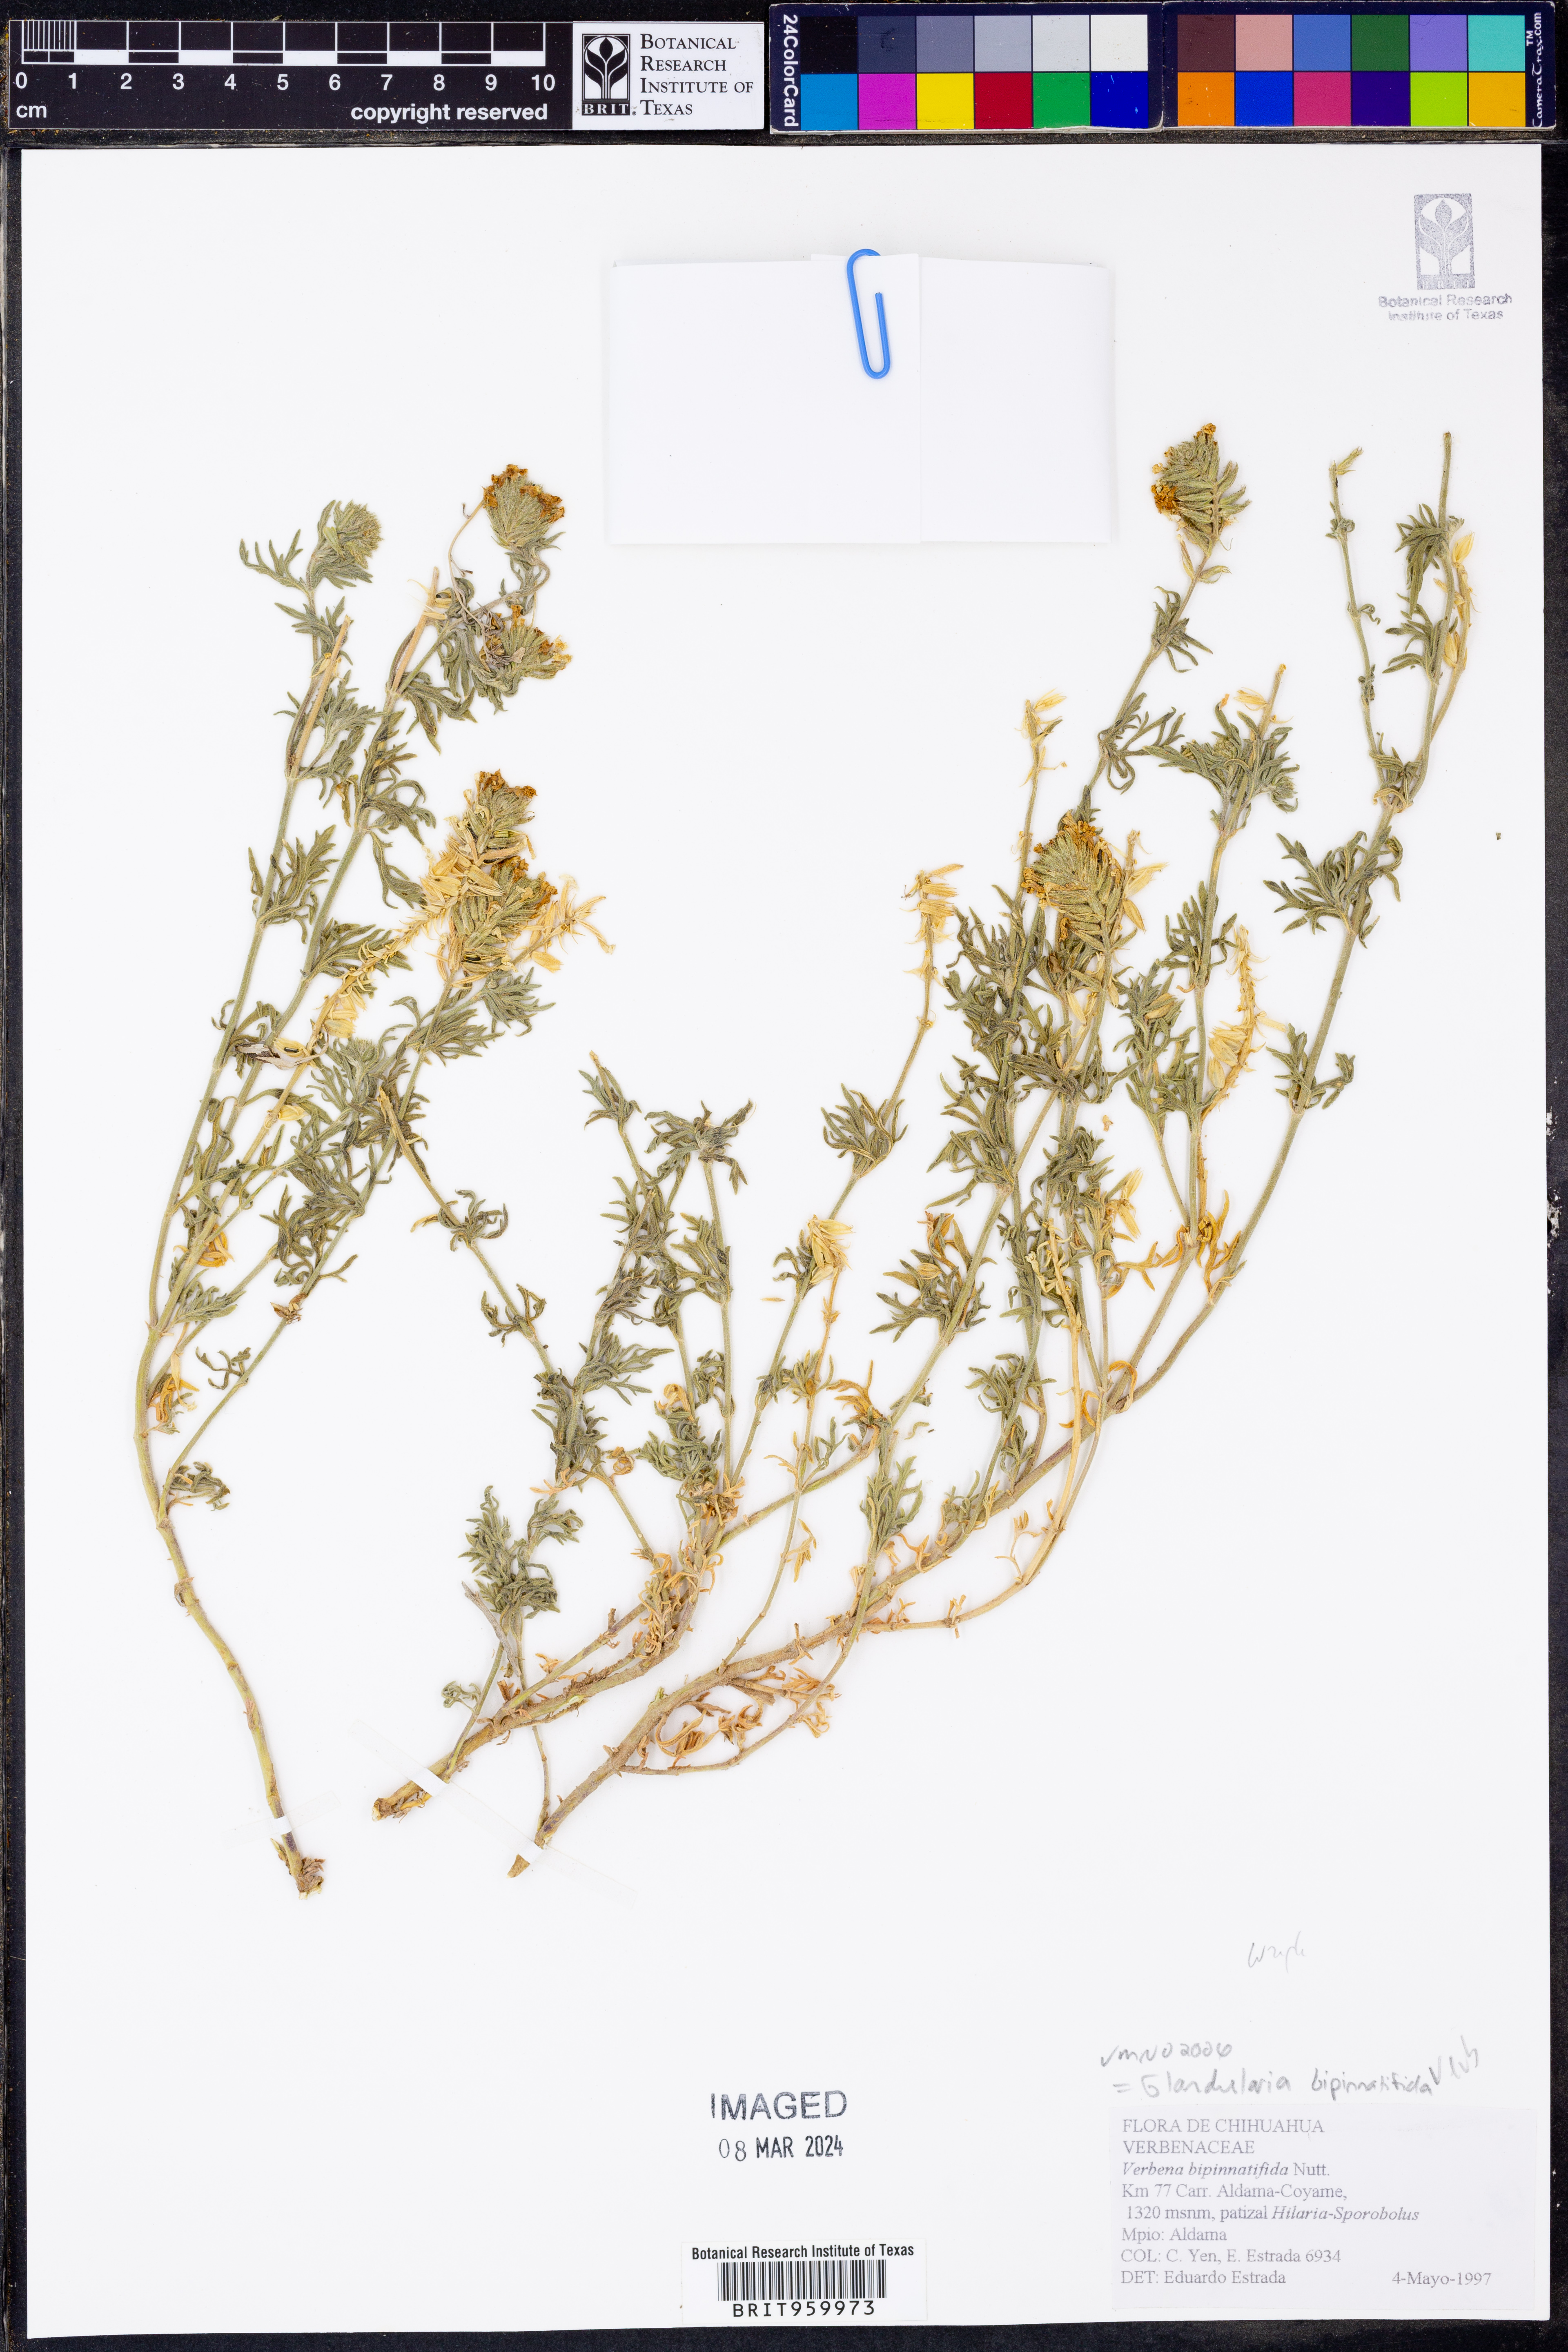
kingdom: Plantae
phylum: Tracheophyta
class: Magnoliopsida
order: Lamiales
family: Verbenaceae
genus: Verbena
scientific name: Verbena bipinnatifida
